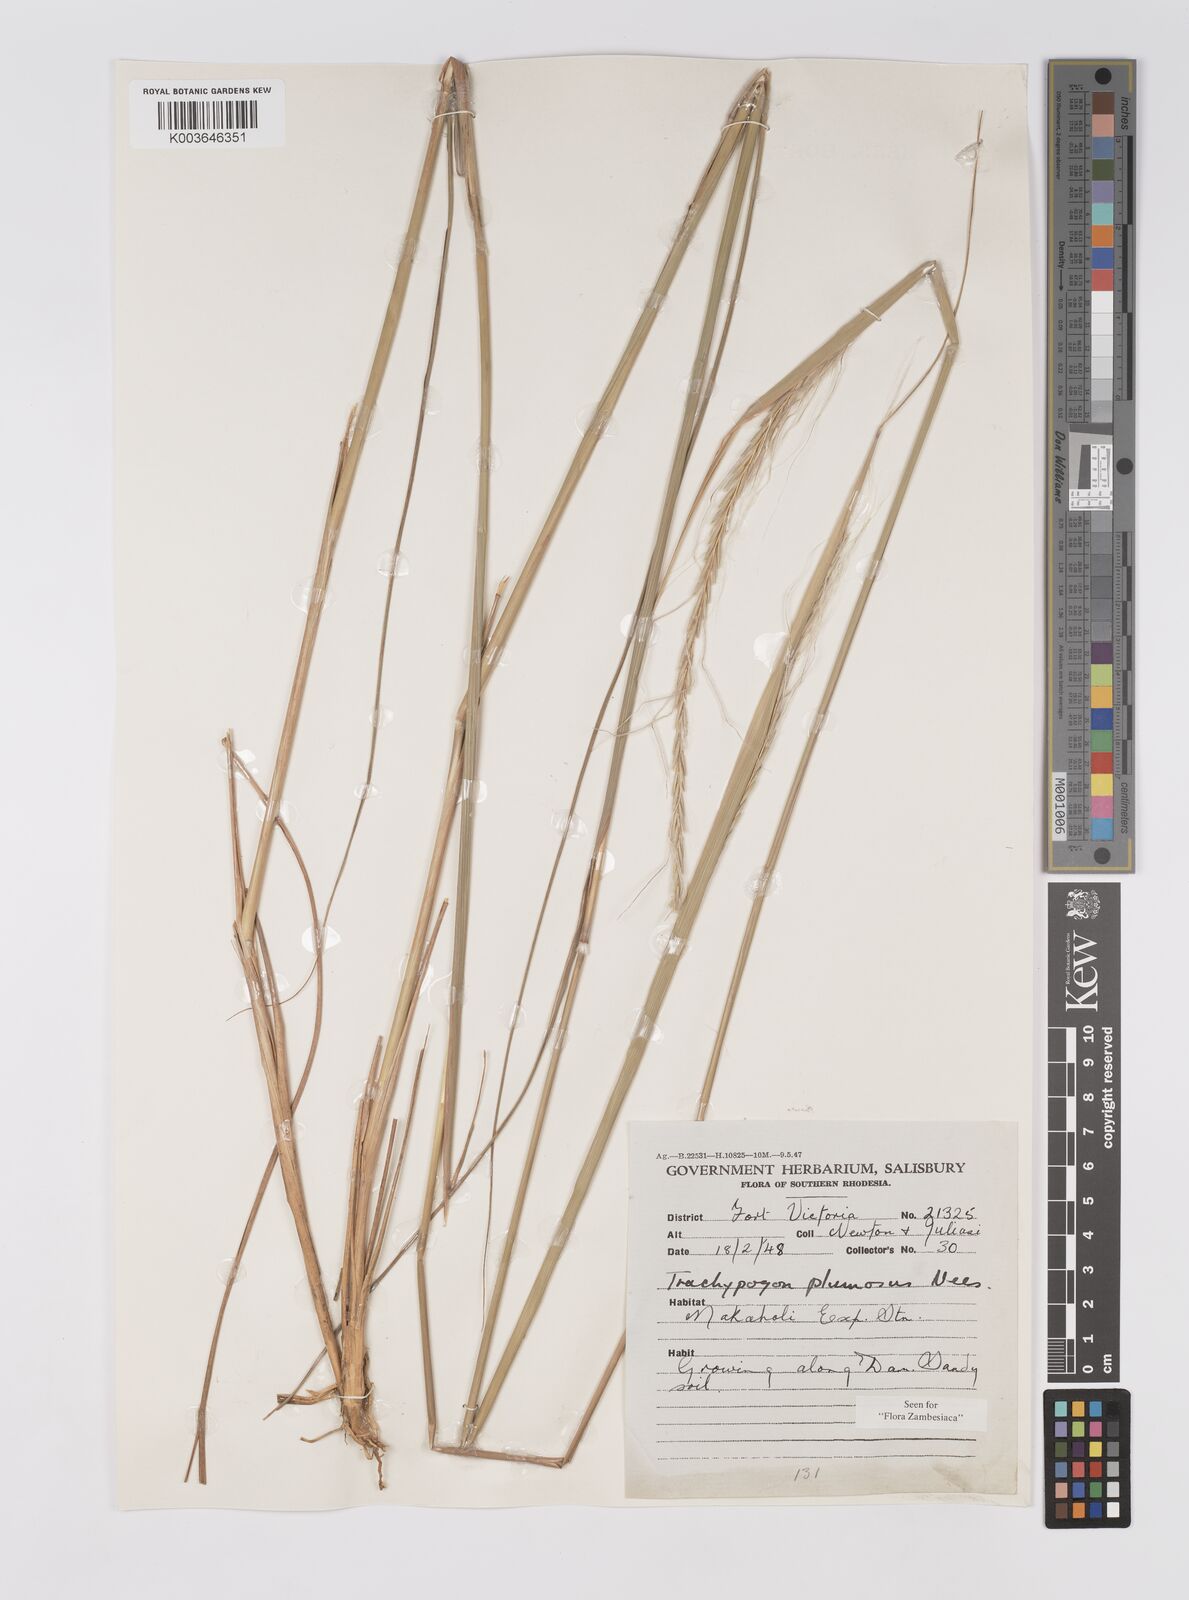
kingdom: Plantae
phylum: Tracheophyta
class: Liliopsida
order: Poales
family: Poaceae
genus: Trachypogon
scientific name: Trachypogon spicatus
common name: Crinkle-awn
